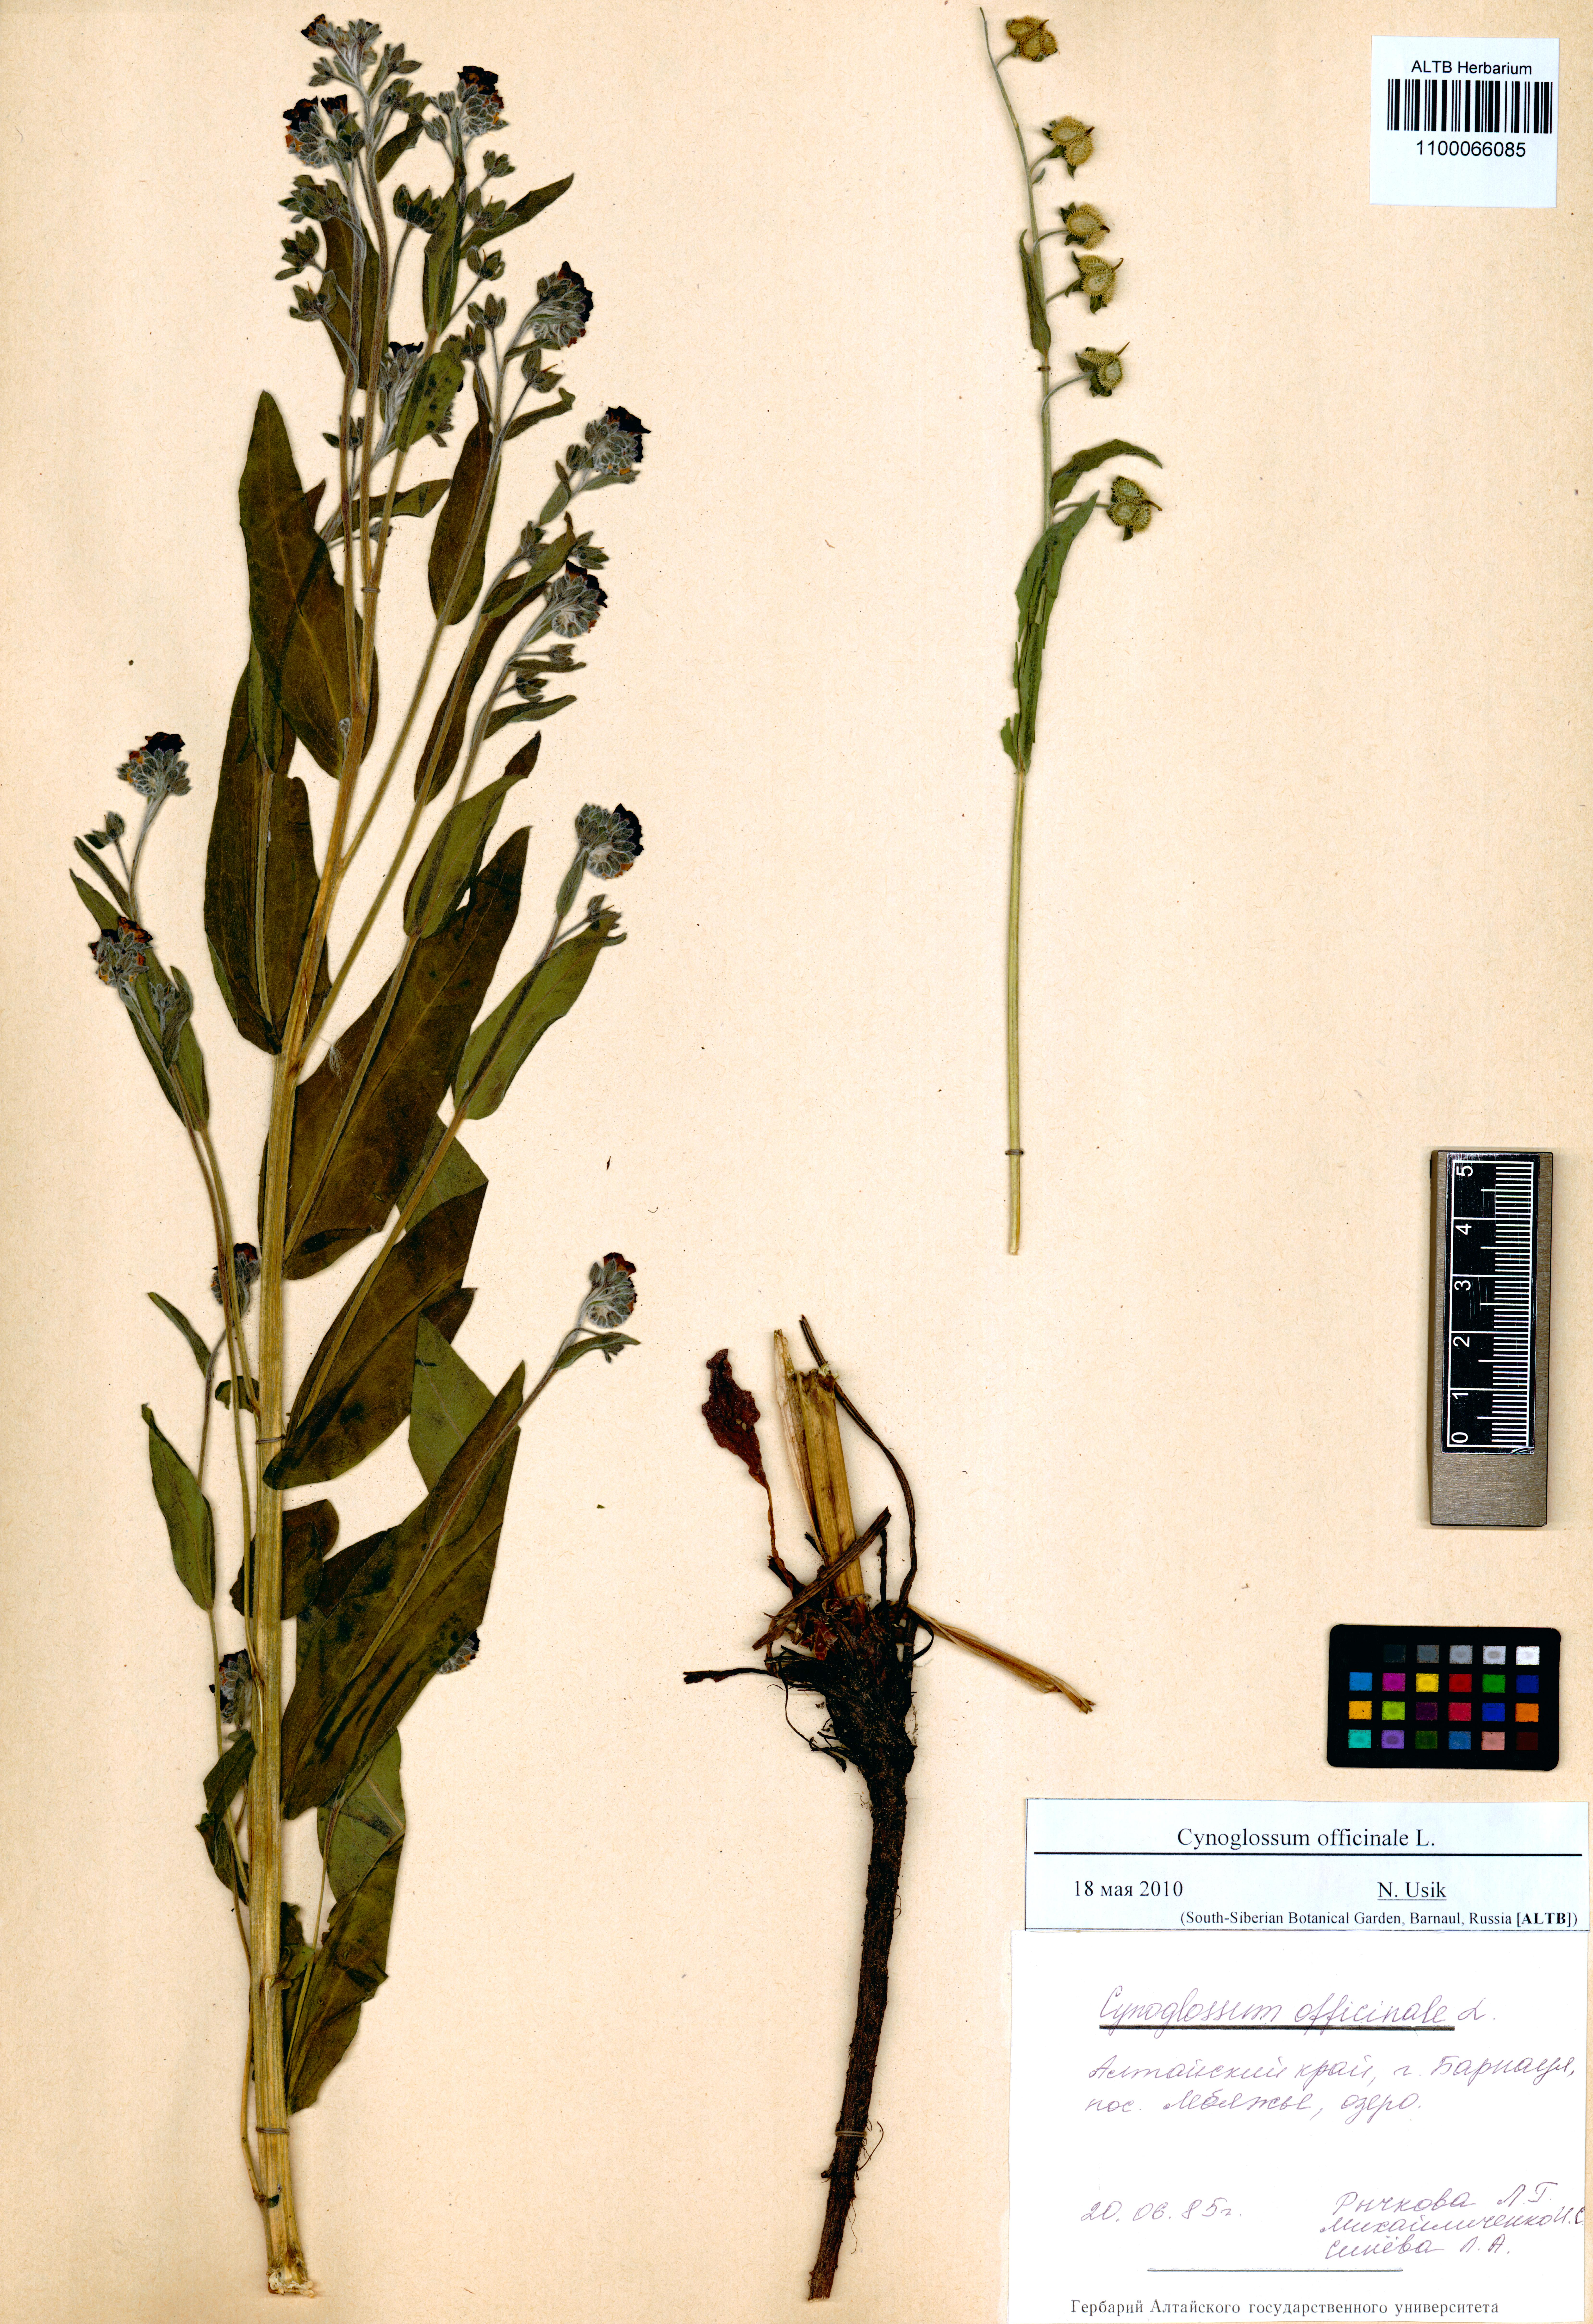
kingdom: Plantae
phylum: Tracheophyta
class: Magnoliopsida
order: Boraginales
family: Boraginaceae
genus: Cynoglossum
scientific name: Cynoglossum officinale
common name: Hound's-tongue
